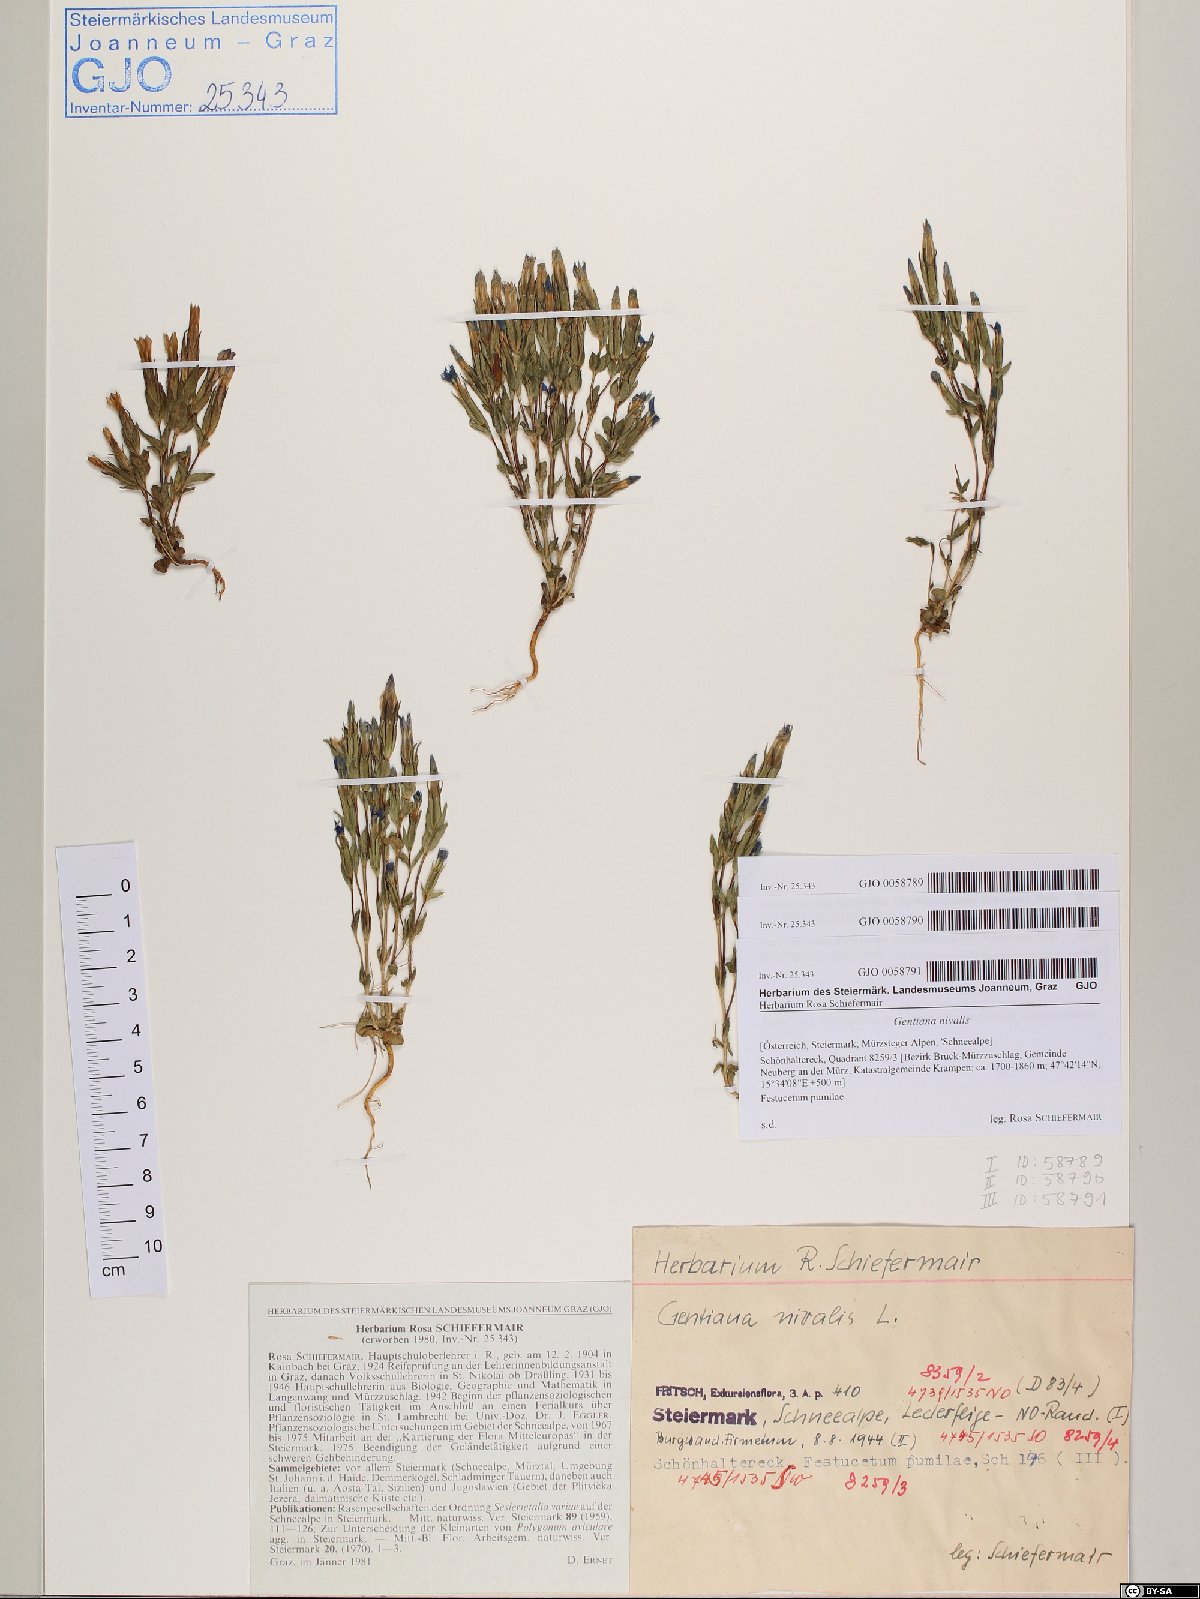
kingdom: Plantae
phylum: Tracheophyta
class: Magnoliopsida
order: Gentianales
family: Gentianaceae
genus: Gentiana
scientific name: Gentiana nivalis
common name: Alpine gentian
